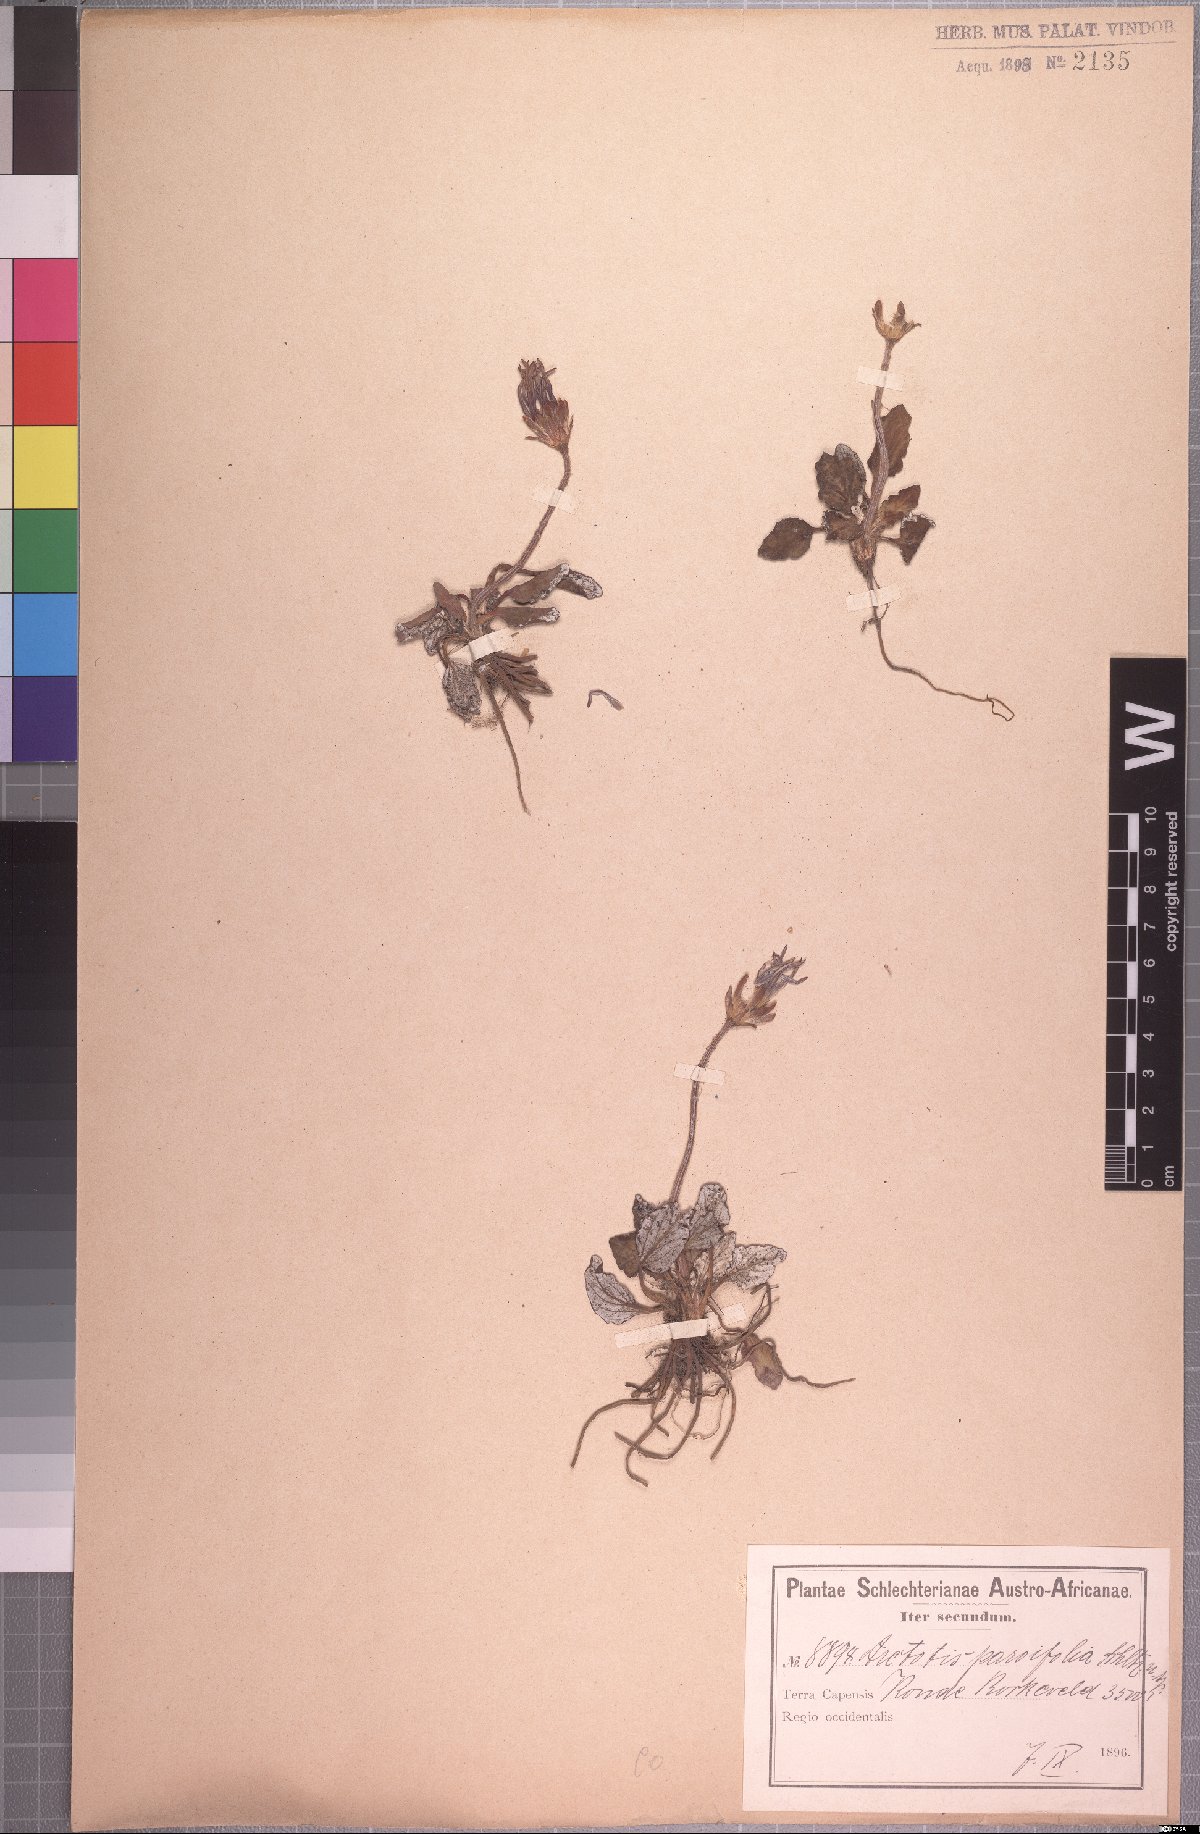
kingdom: Plantae
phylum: Tracheophyta
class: Magnoliopsida
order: Asterales
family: Asteraceae
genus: Haplocarpha
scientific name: Haplocarpha parvifolia
